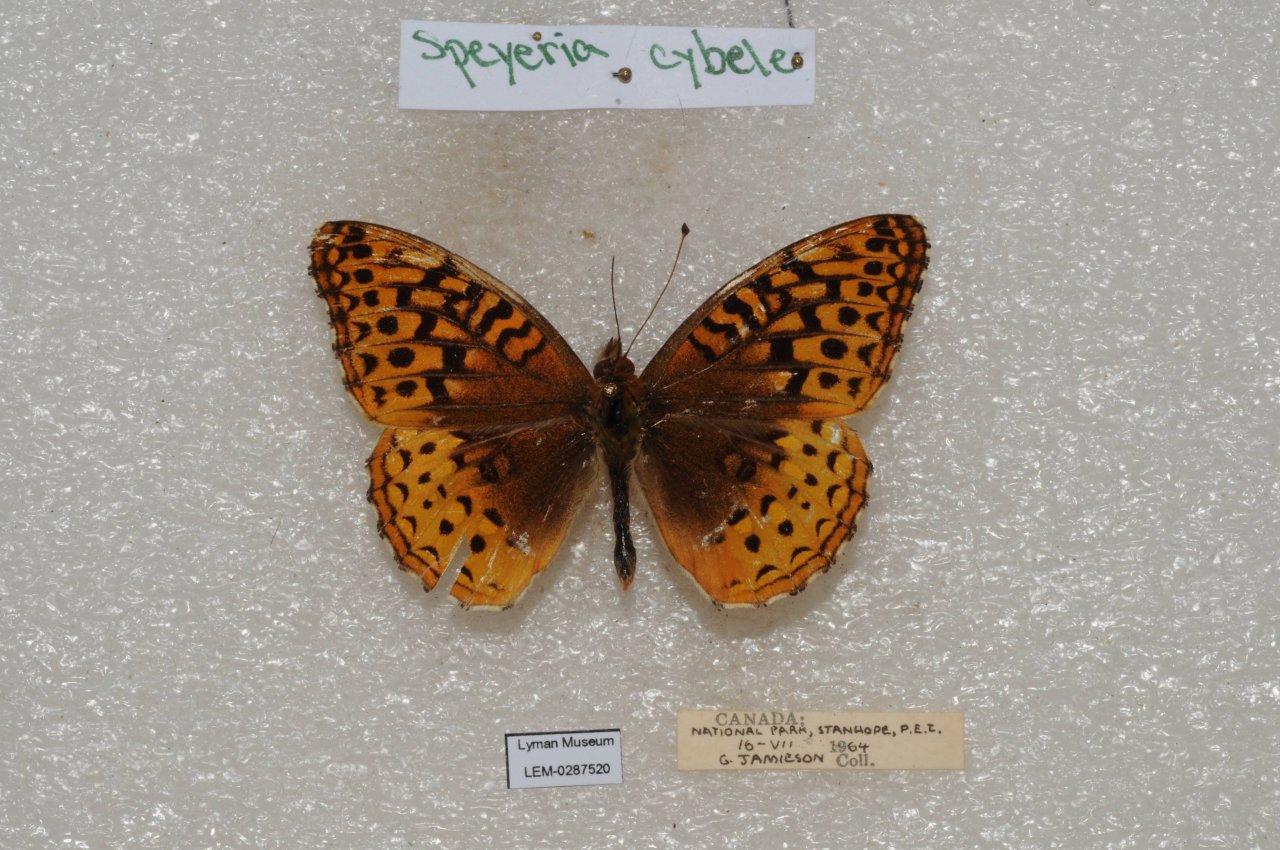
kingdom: Animalia
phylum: Arthropoda
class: Insecta
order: Lepidoptera
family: Nymphalidae
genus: Speyeria
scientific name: Speyeria cybele
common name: Great Spangled Fritillary
